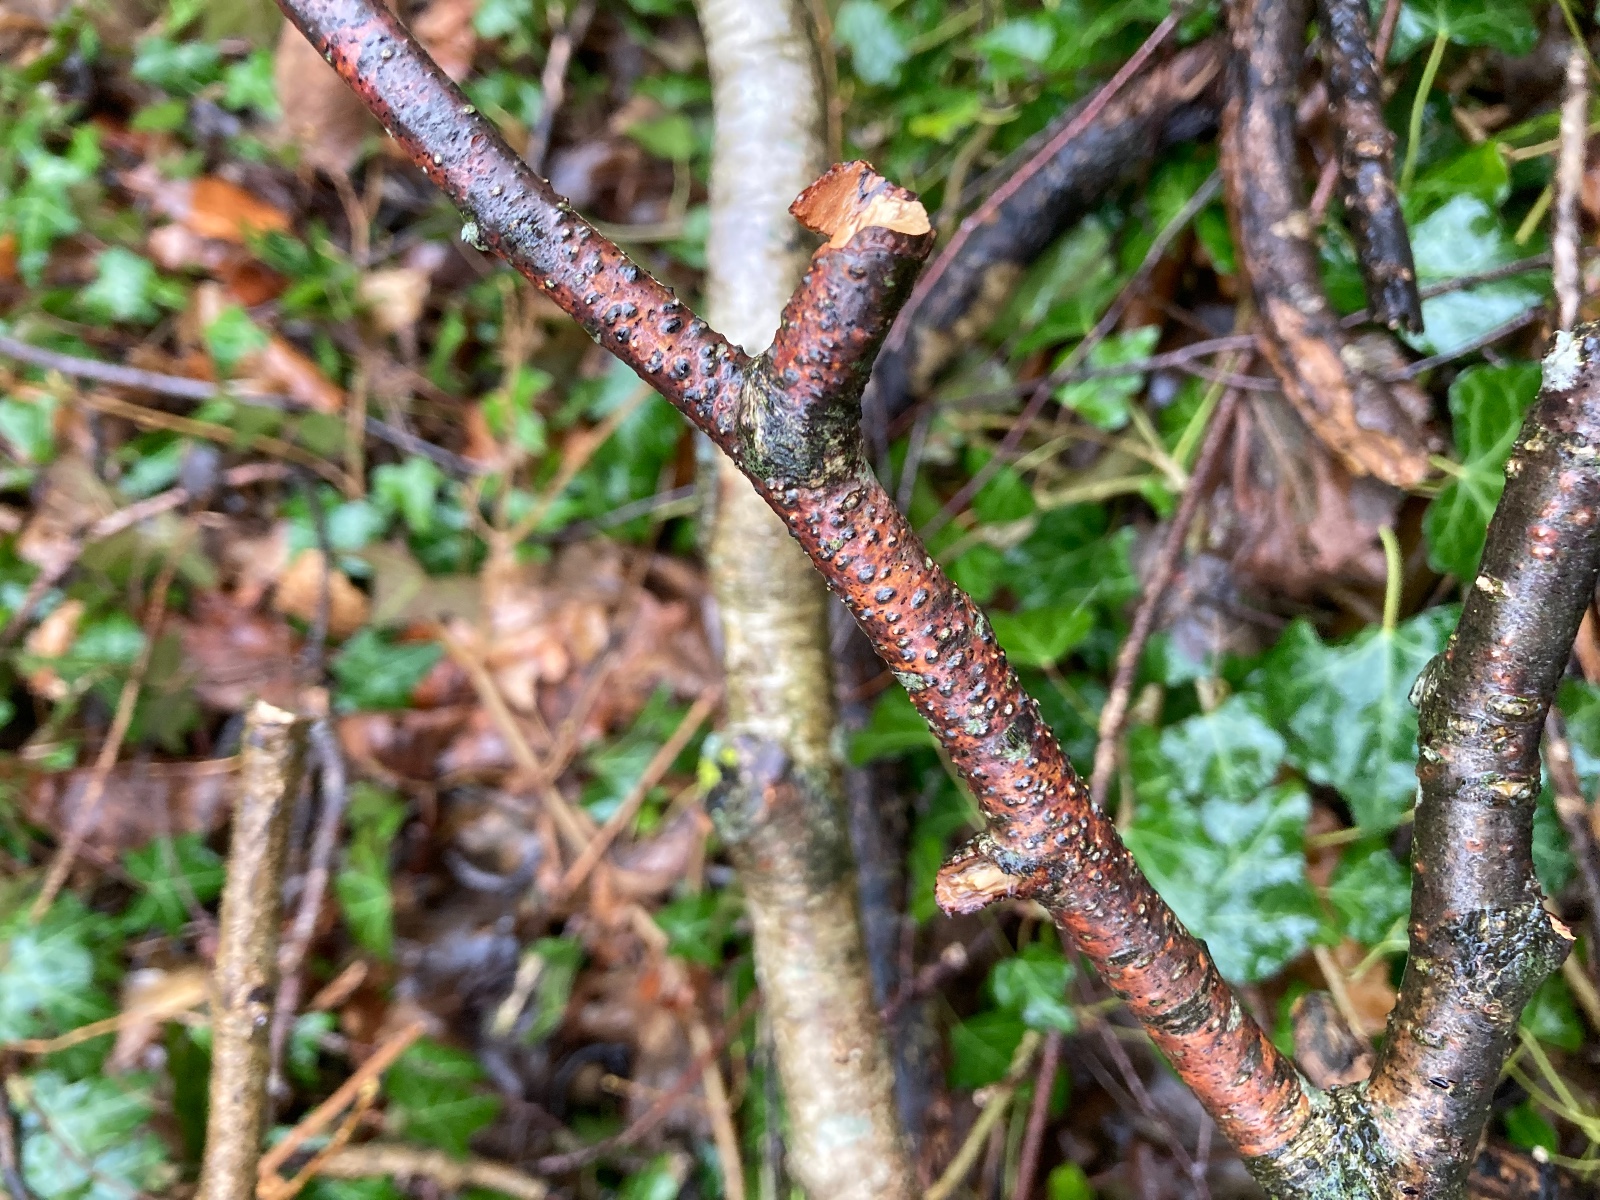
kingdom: Fungi
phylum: Ascomycota
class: Sordariomycetes
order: Diaporthales
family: Melanconidaceae
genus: Melanconis
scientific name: Melanconis stilbostoma
